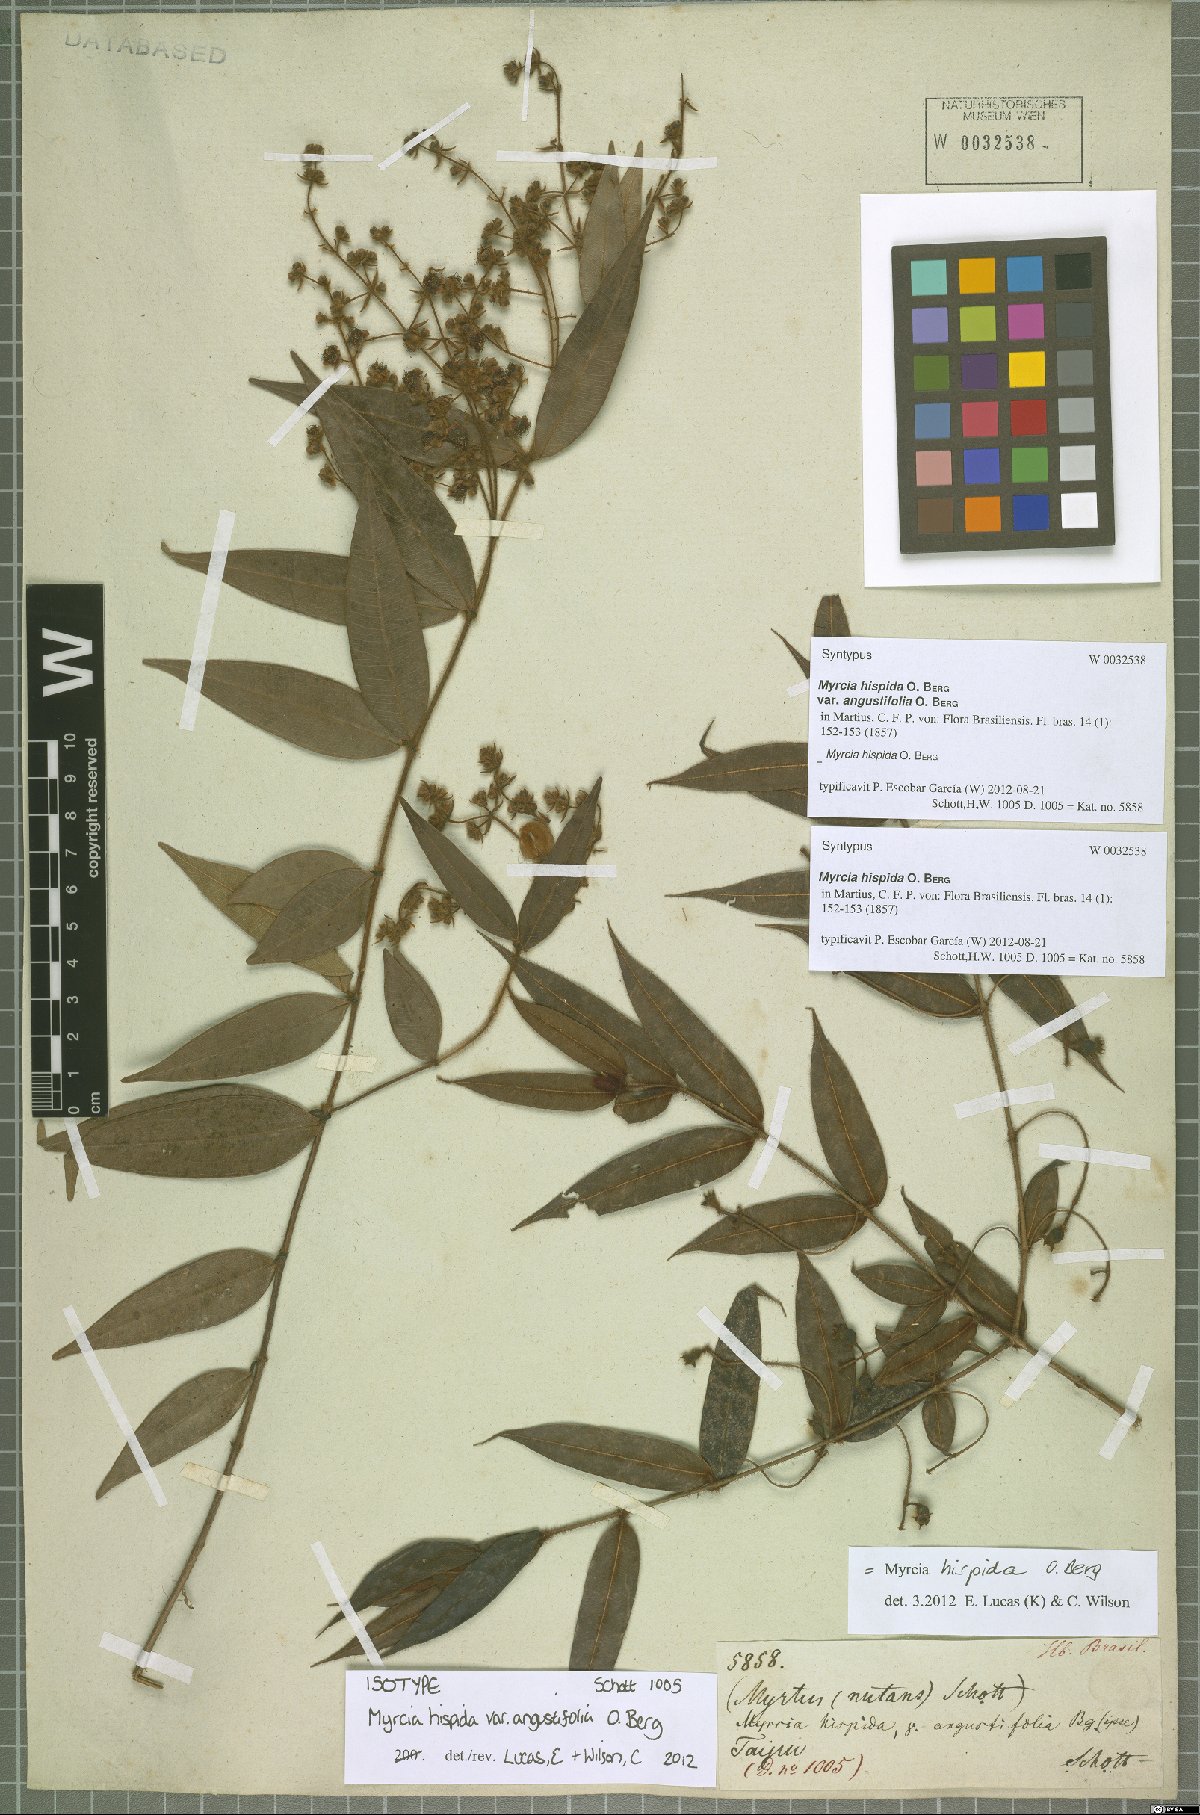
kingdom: Plantae
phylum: Tracheophyta
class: Magnoliopsida
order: Myrtales
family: Myrtaceae
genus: Myrcia
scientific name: Myrcia hispida
